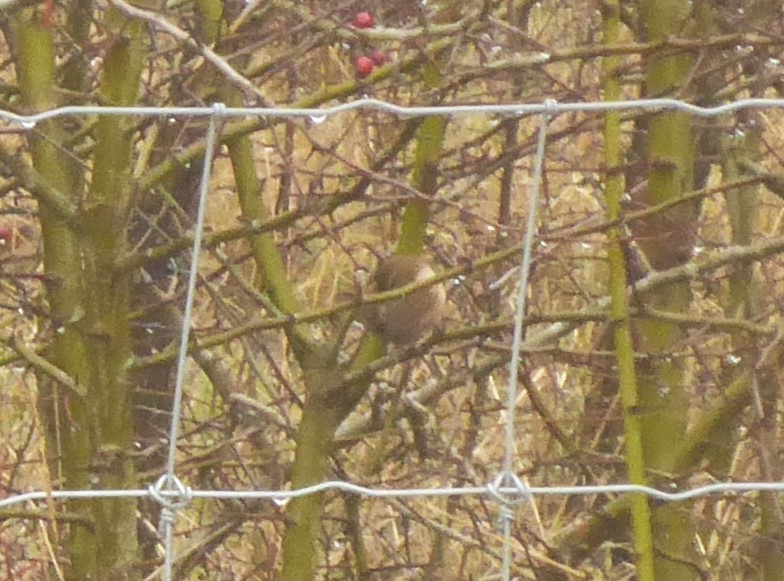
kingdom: Animalia
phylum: Chordata
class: Aves
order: Passeriformes
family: Troglodytidae
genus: Troglodytes
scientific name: Troglodytes troglodytes
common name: Gærdesmutte
